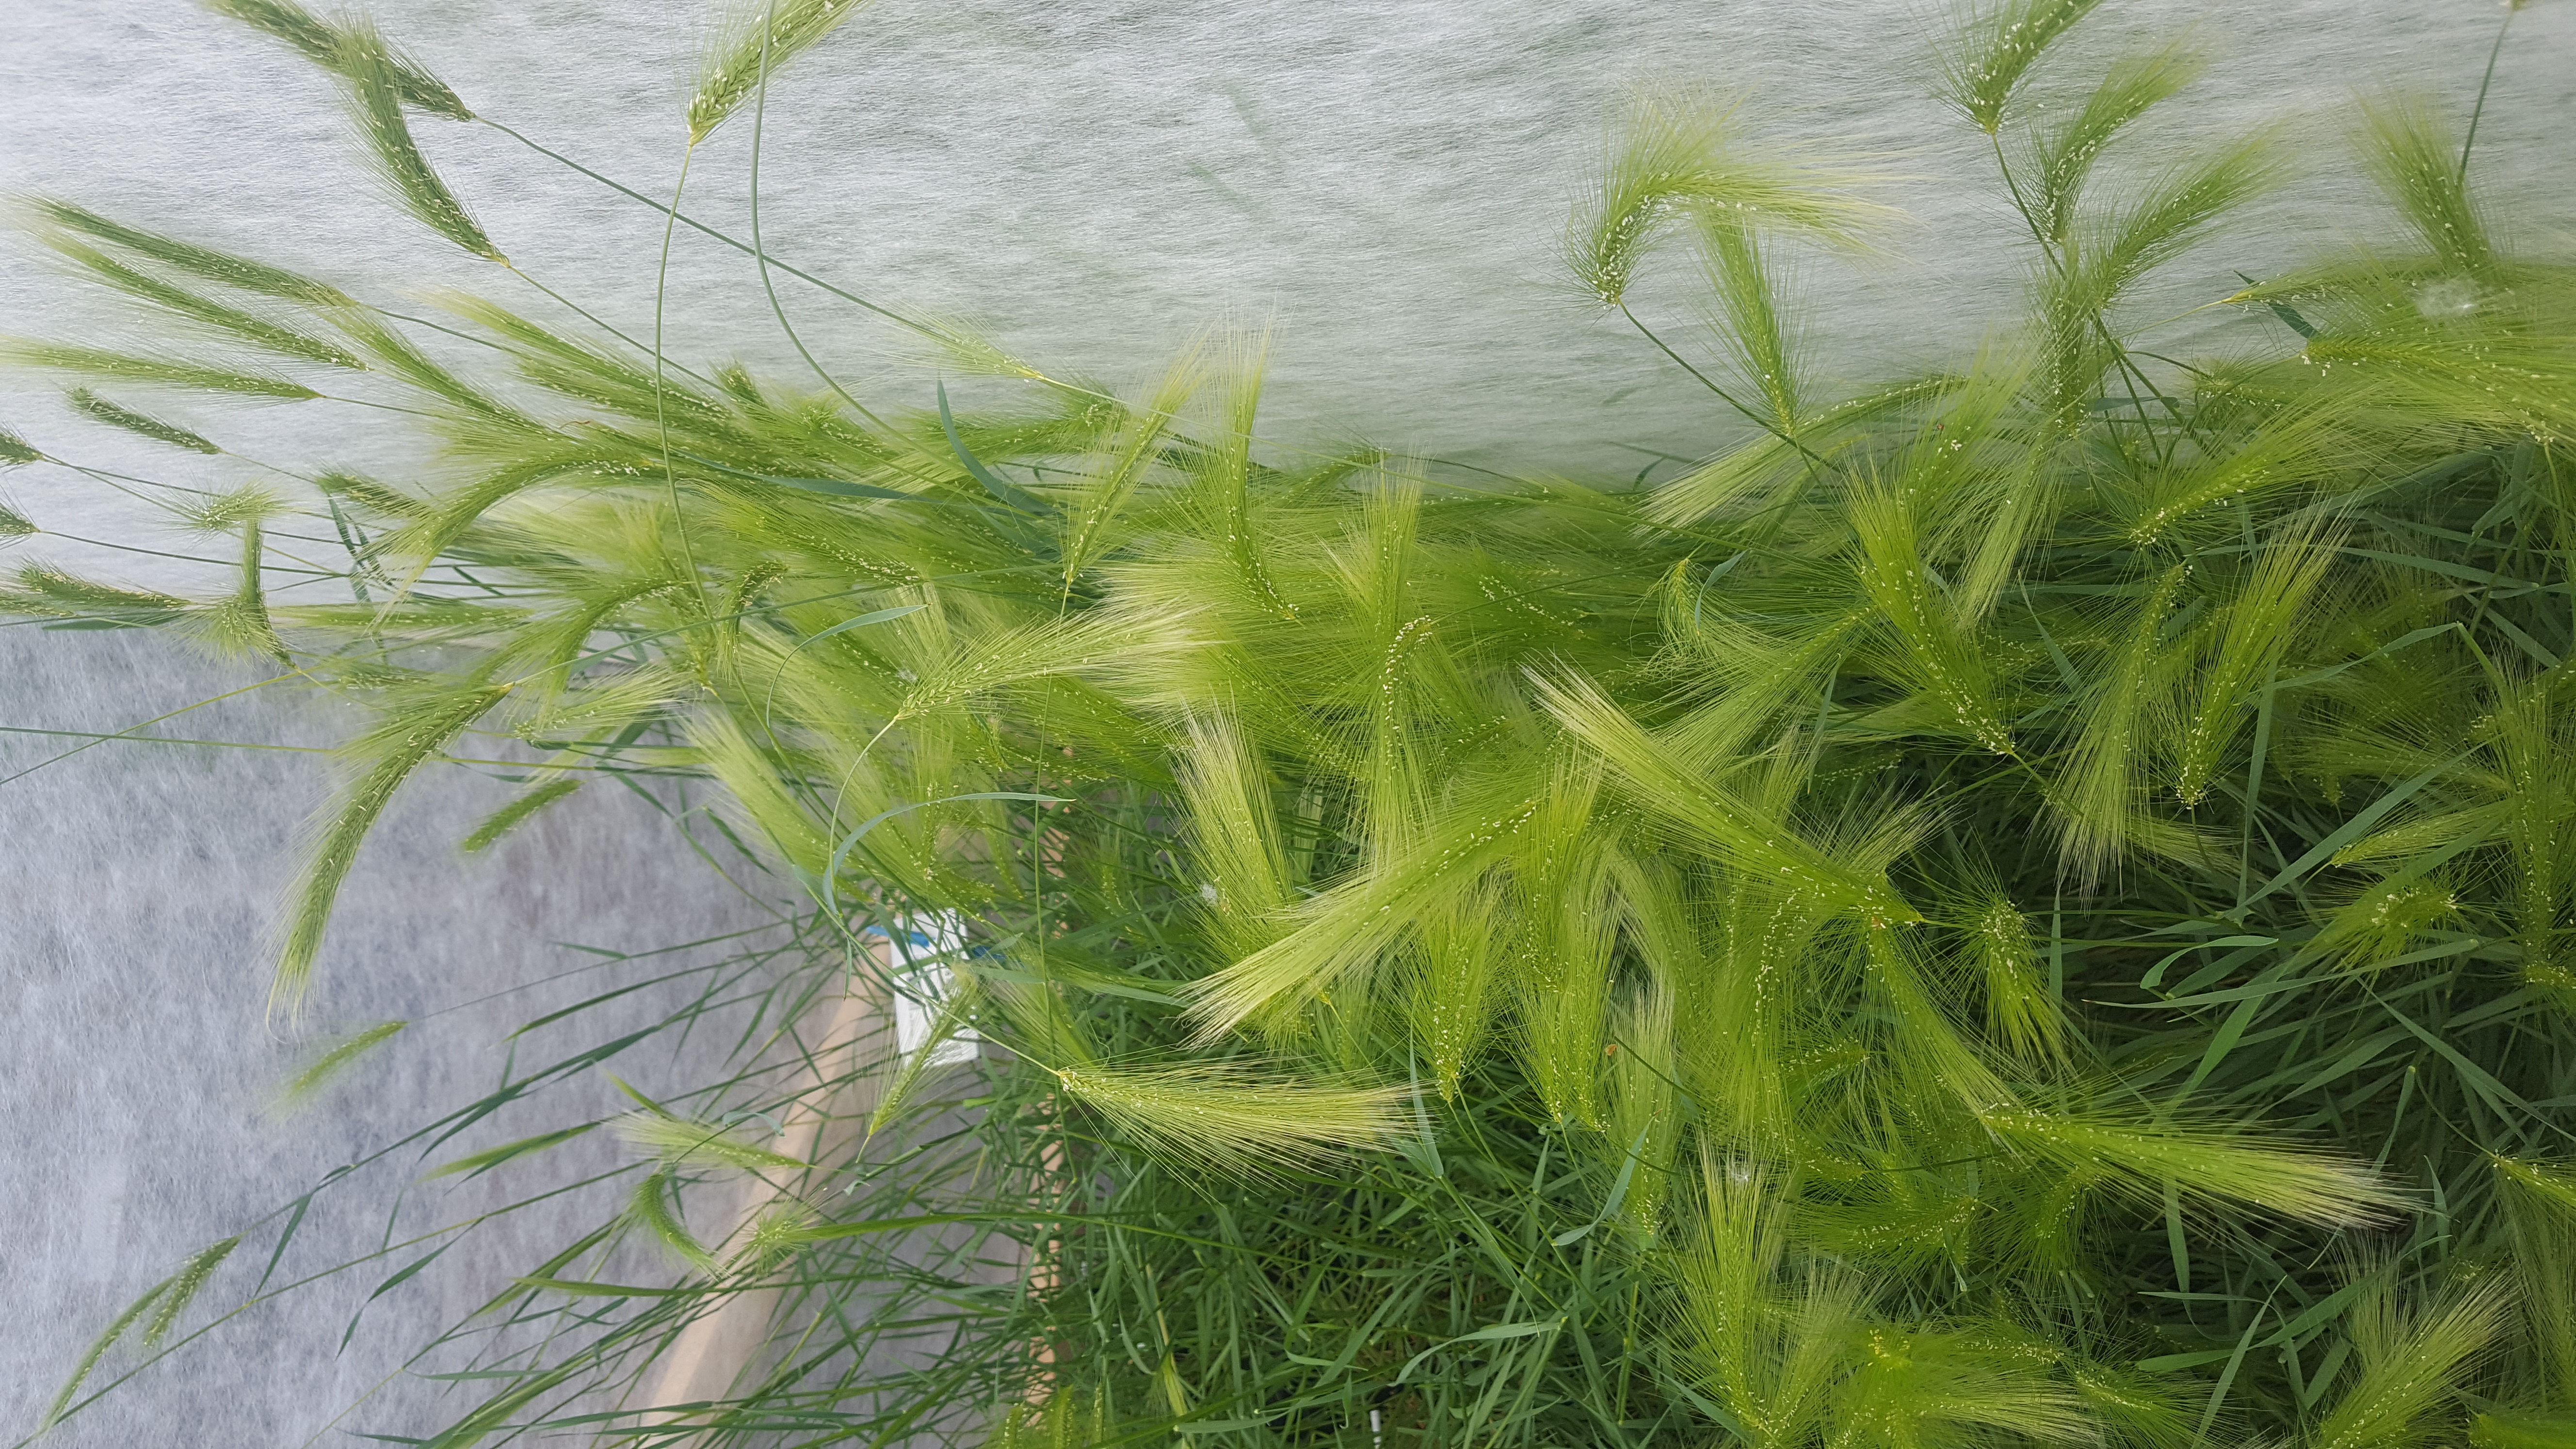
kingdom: Plantae
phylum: Tracheophyta
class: Liliopsida
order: Poales
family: Poaceae
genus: Hordeum
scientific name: Hordeum jubatum
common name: Foxtail barley
